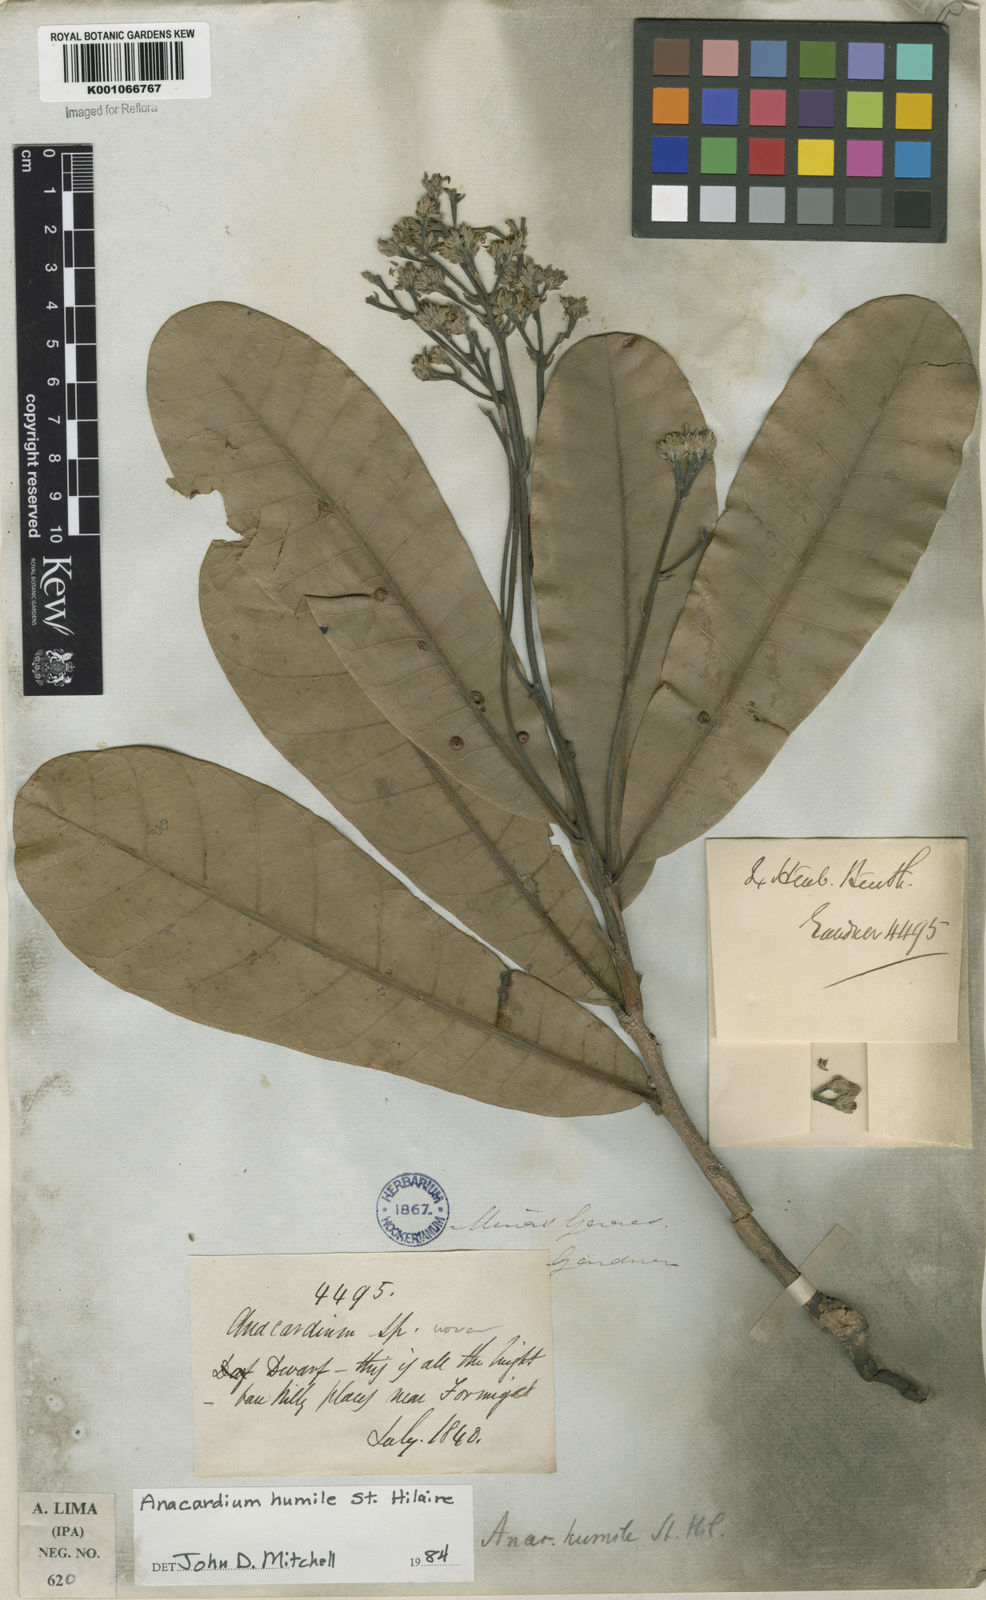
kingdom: Plantae
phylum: Tracheophyta
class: Magnoliopsida
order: Sapindales
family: Anacardiaceae
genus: Anacardium
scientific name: Anacardium humile
